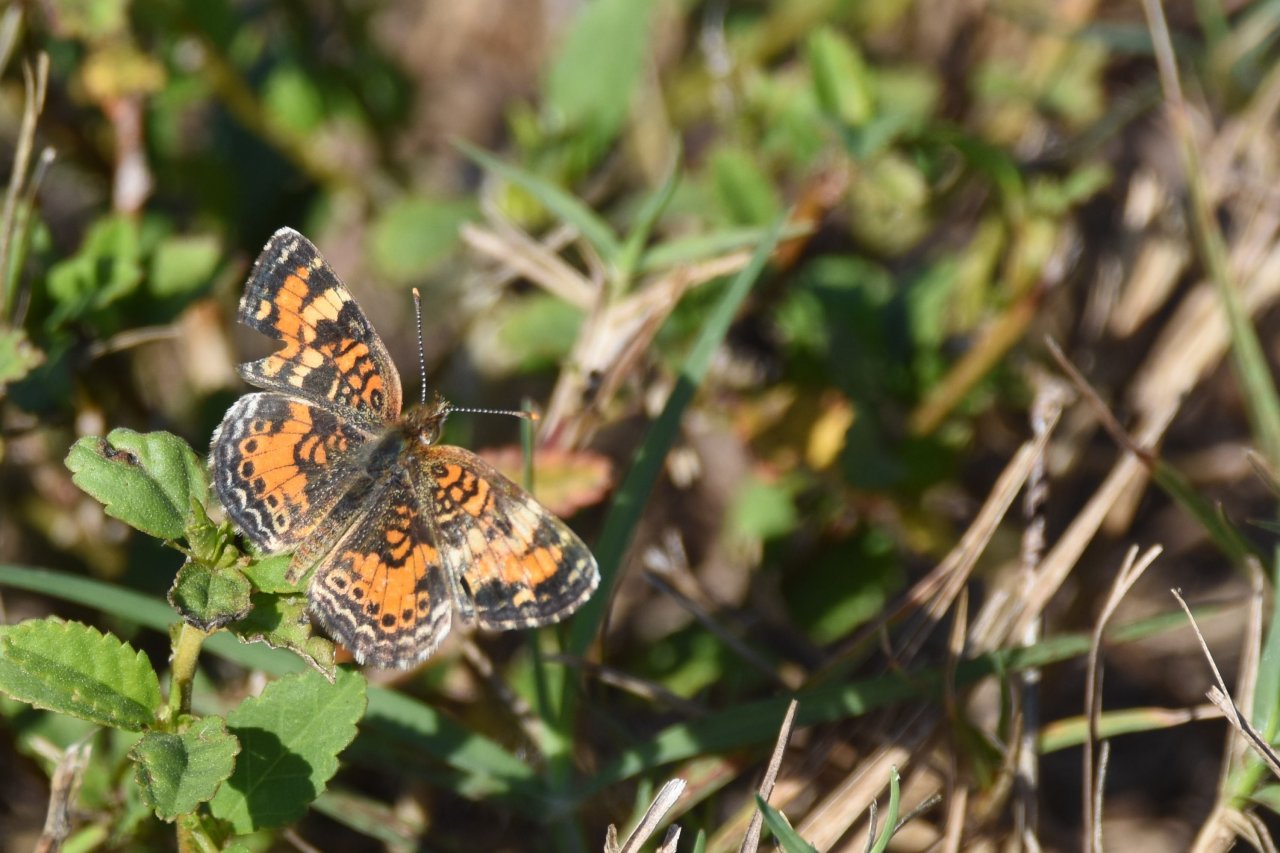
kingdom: Animalia
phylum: Arthropoda
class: Insecta
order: Lepidoptera
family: Nymphalidae
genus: Phyciodes
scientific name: Phyciodes phaon
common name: Phaon Crescent
